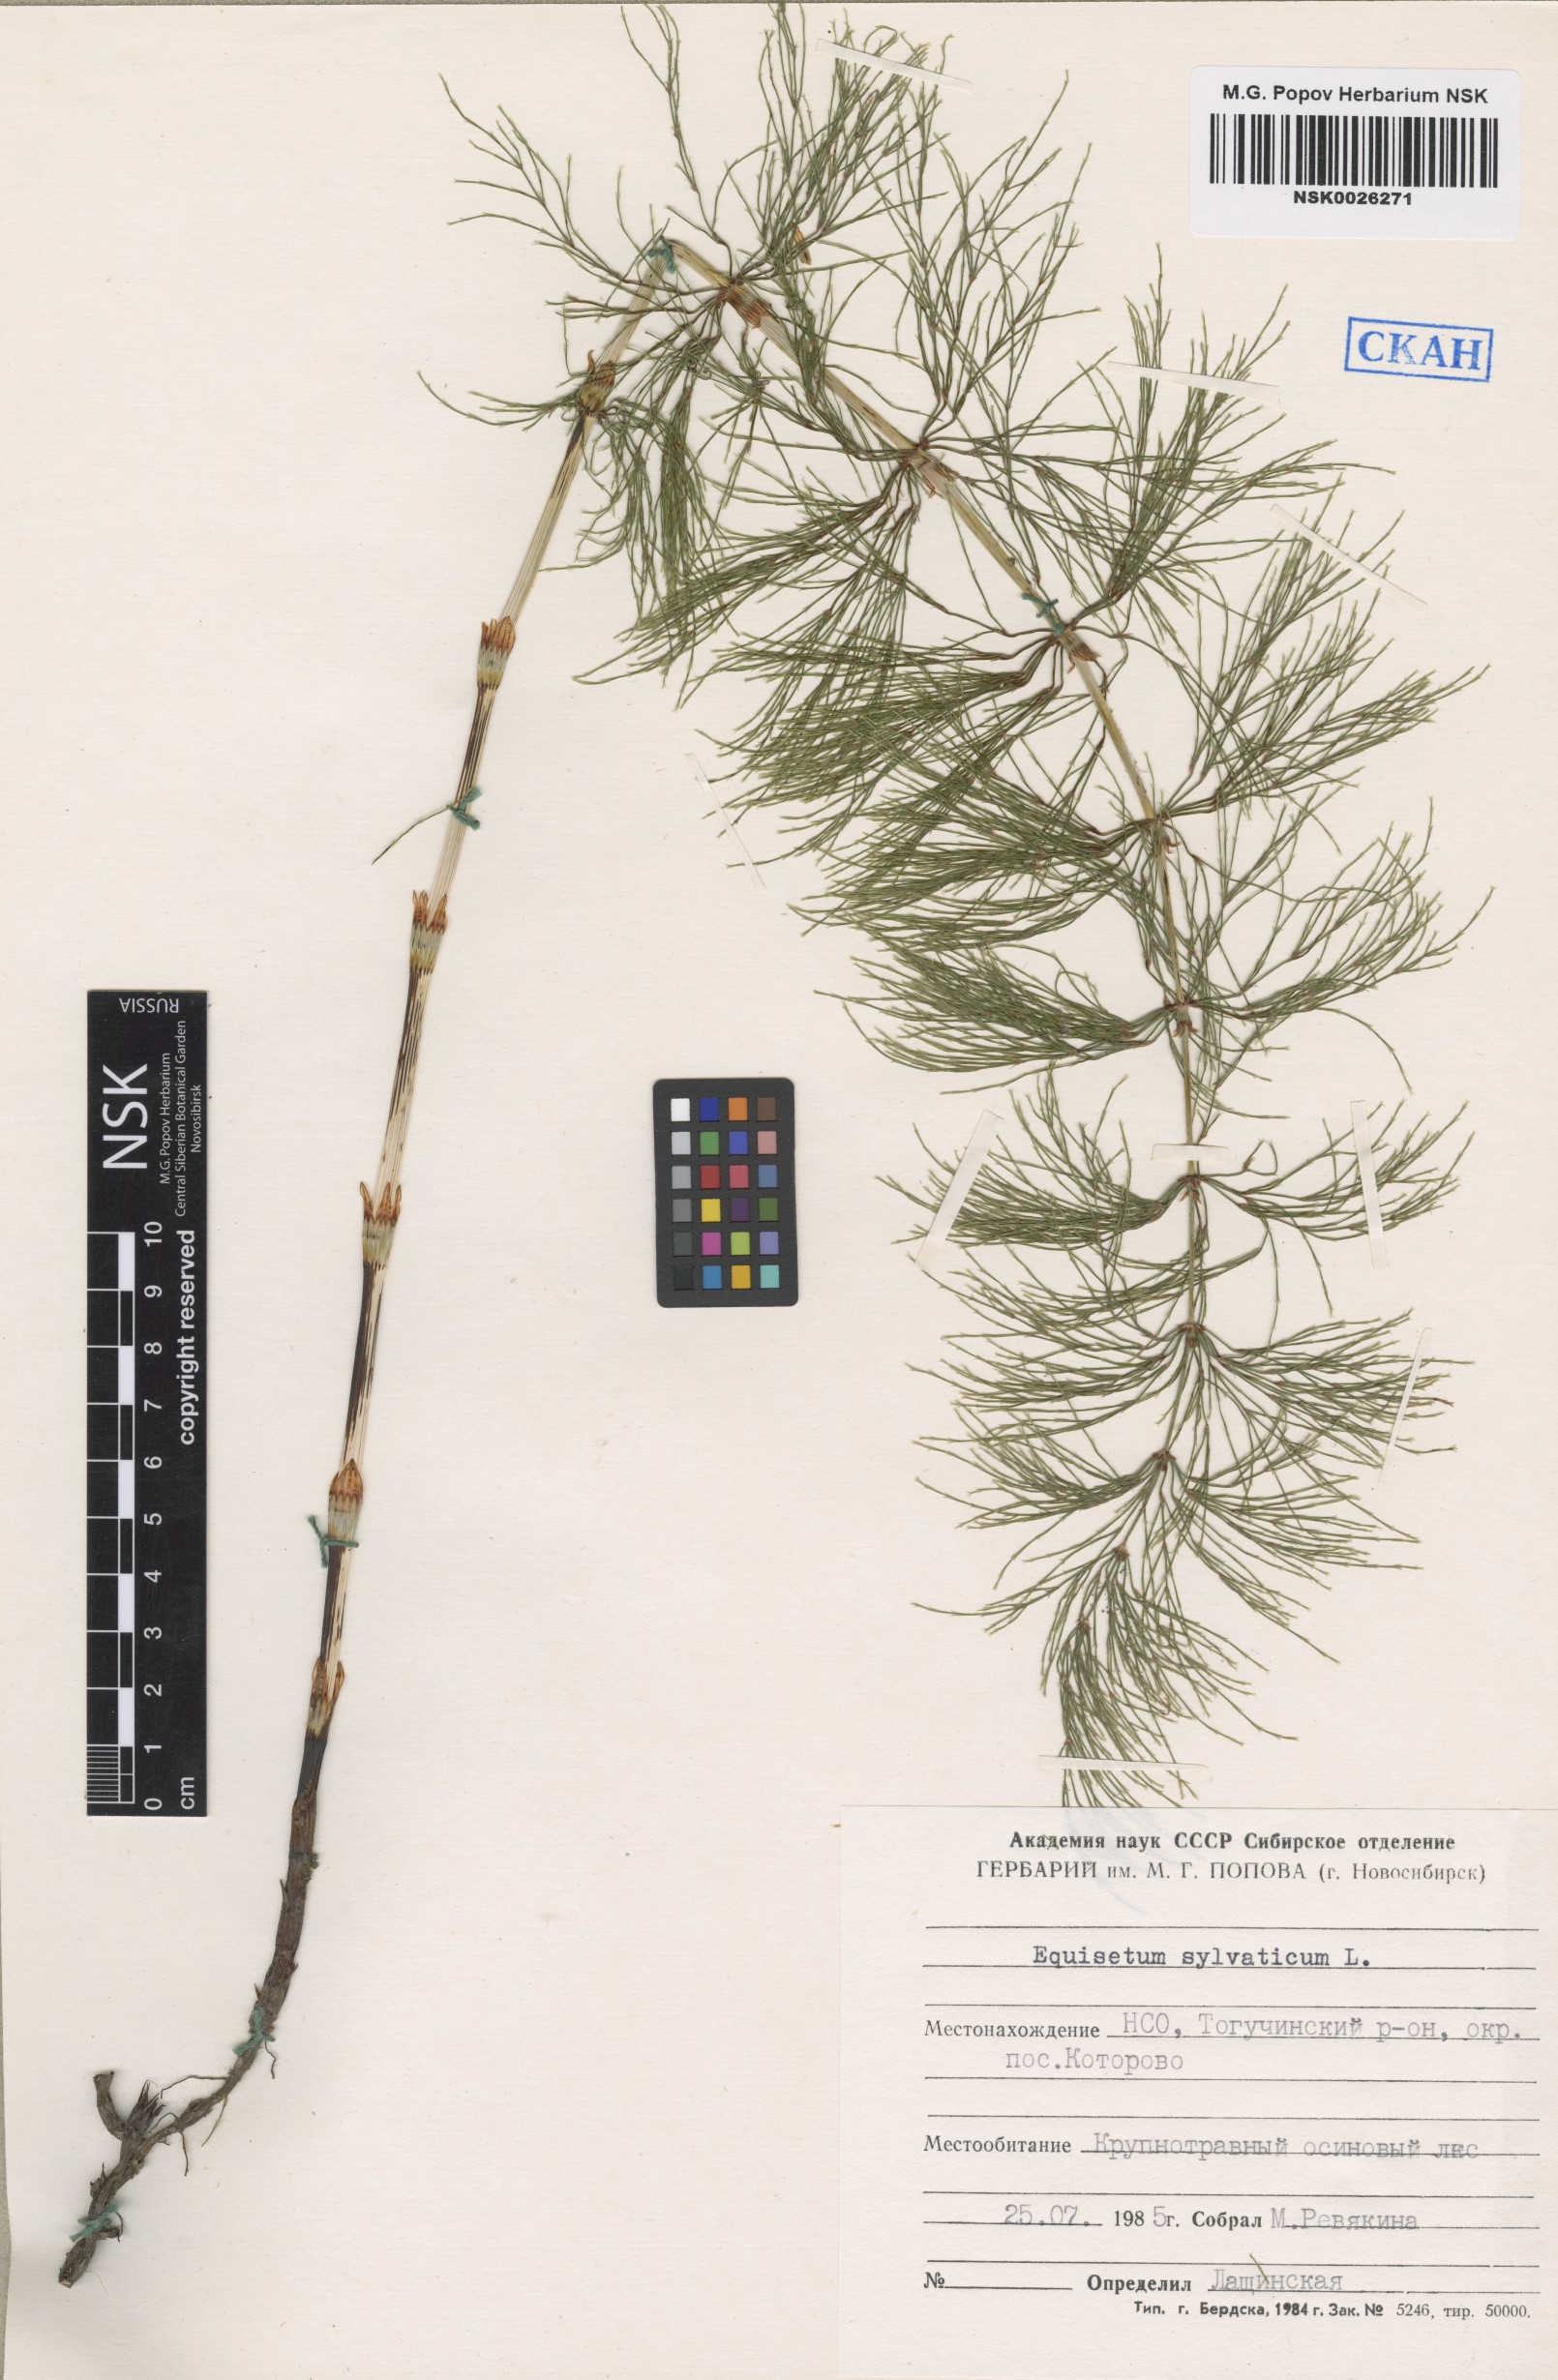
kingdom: Plantae
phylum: Tracheophyta
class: Polypodiopsida
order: Equisetales
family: Equisetaceae
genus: Equisetum
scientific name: Equisetum sylvaticum
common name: Wood horsetail
